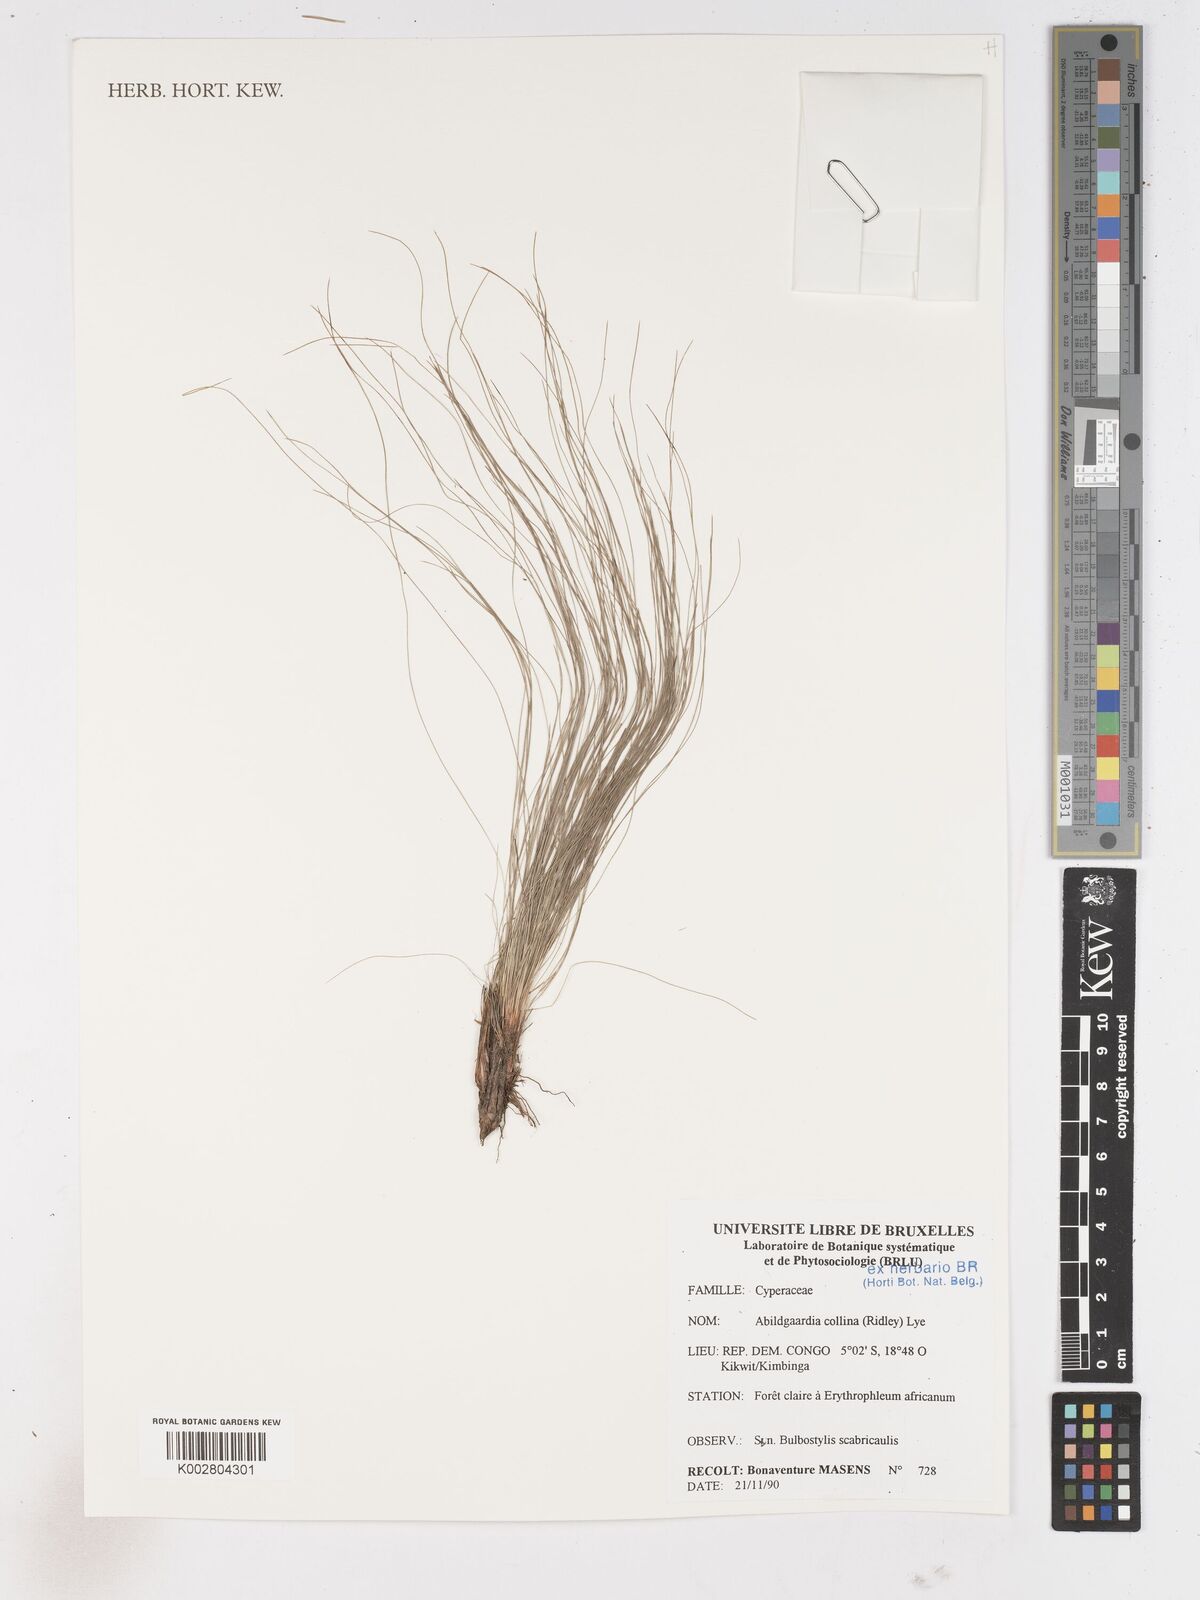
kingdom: Plantae
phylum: Tracheophyta
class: Liliopsida
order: Poales
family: Cyperaceae
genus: Bulbostylis
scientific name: Bulbostylis scabricaulis
